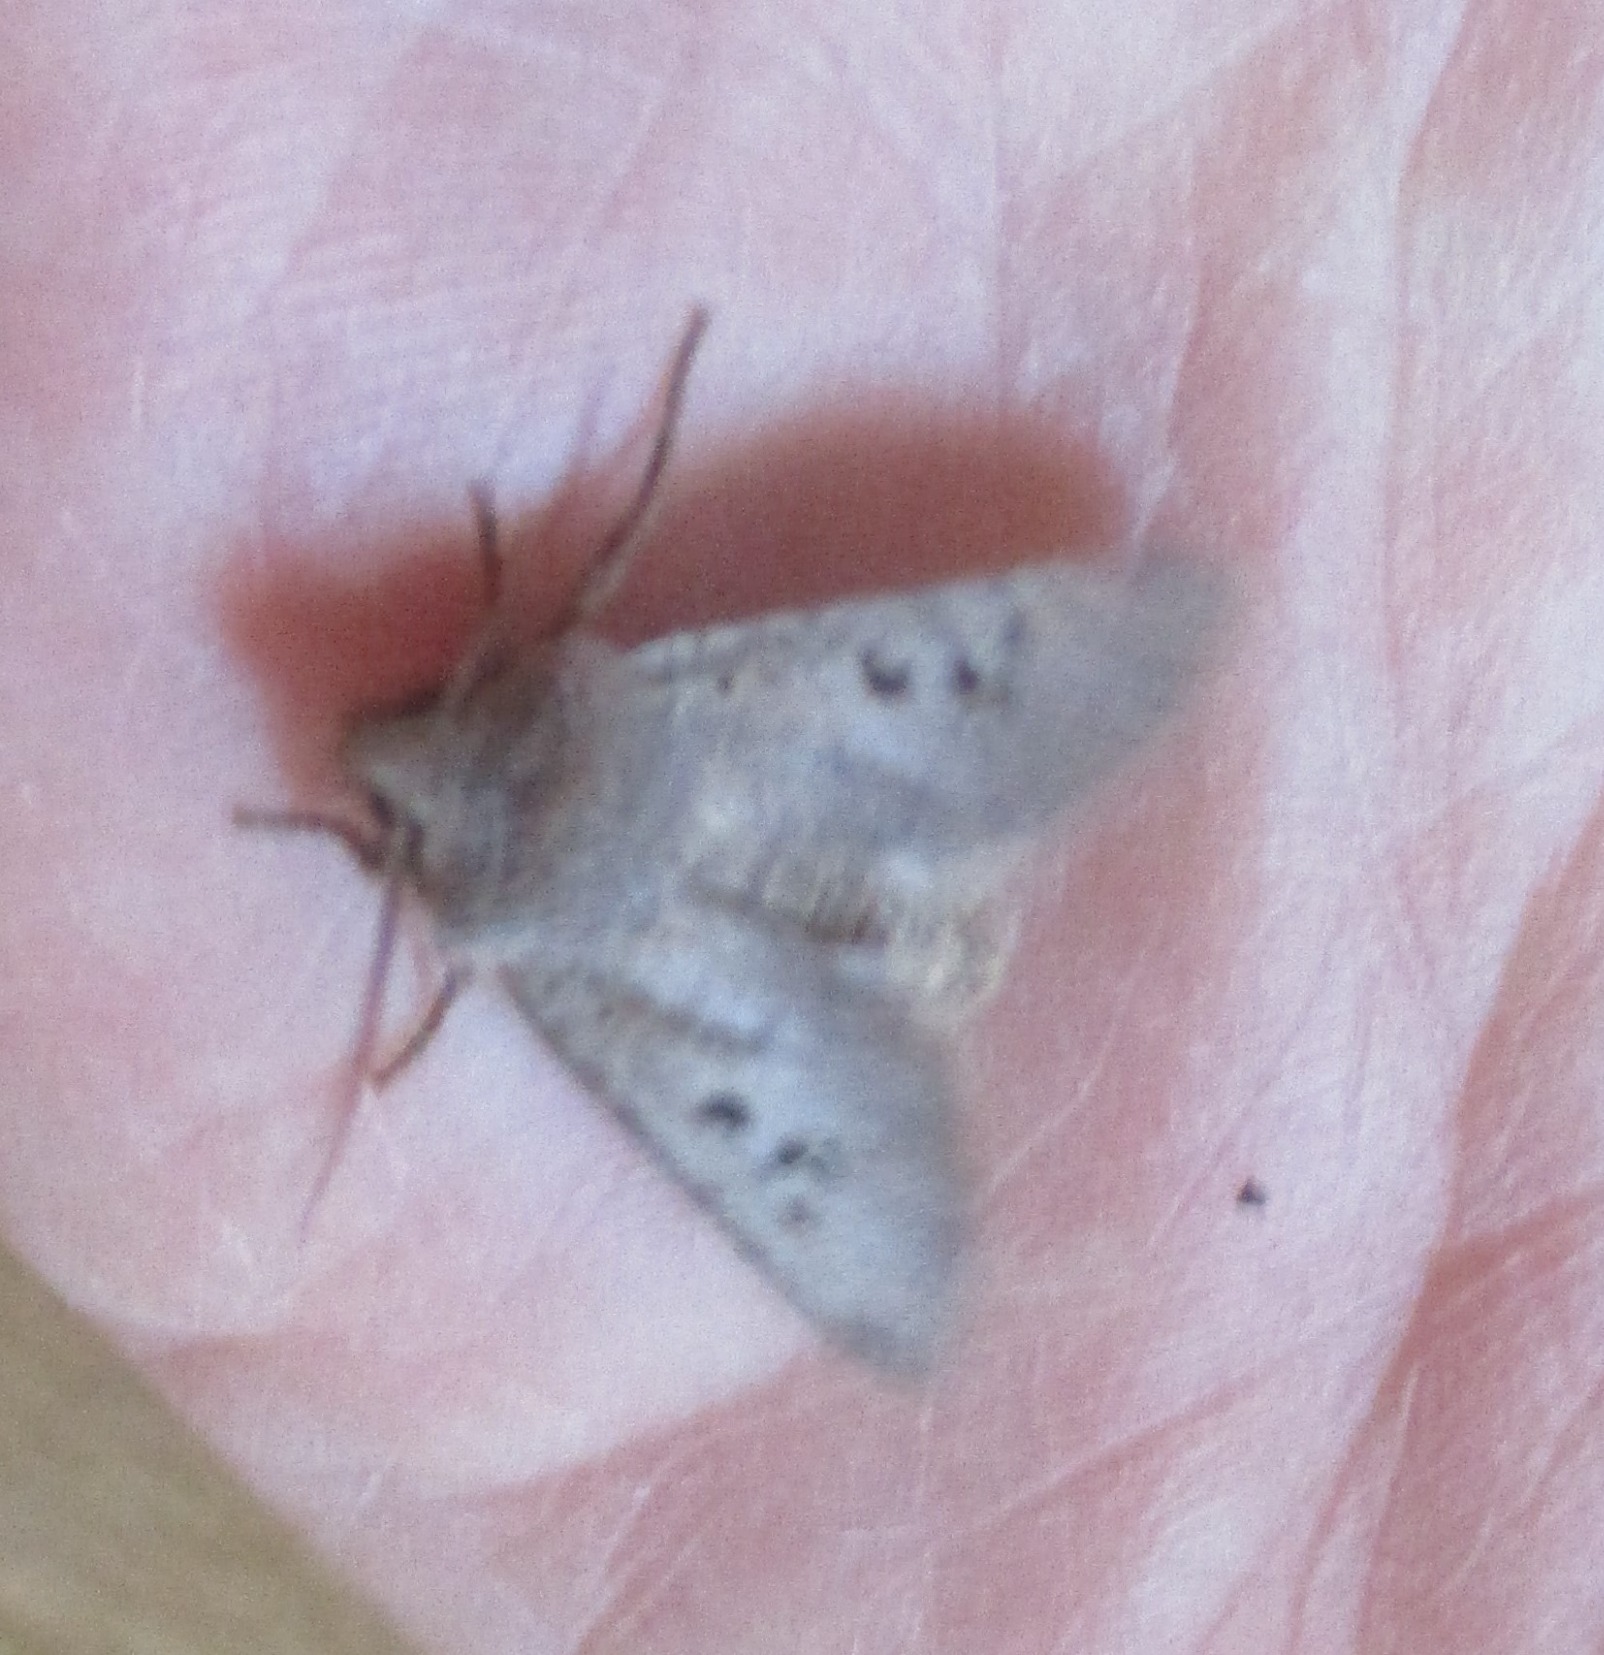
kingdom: Animalia
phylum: Arthropoda
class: Insecta
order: Lepidoptera
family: Noctuidae
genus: Conistra
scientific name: Conistra rubiginosa
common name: Sortmærket overvintringsugle
